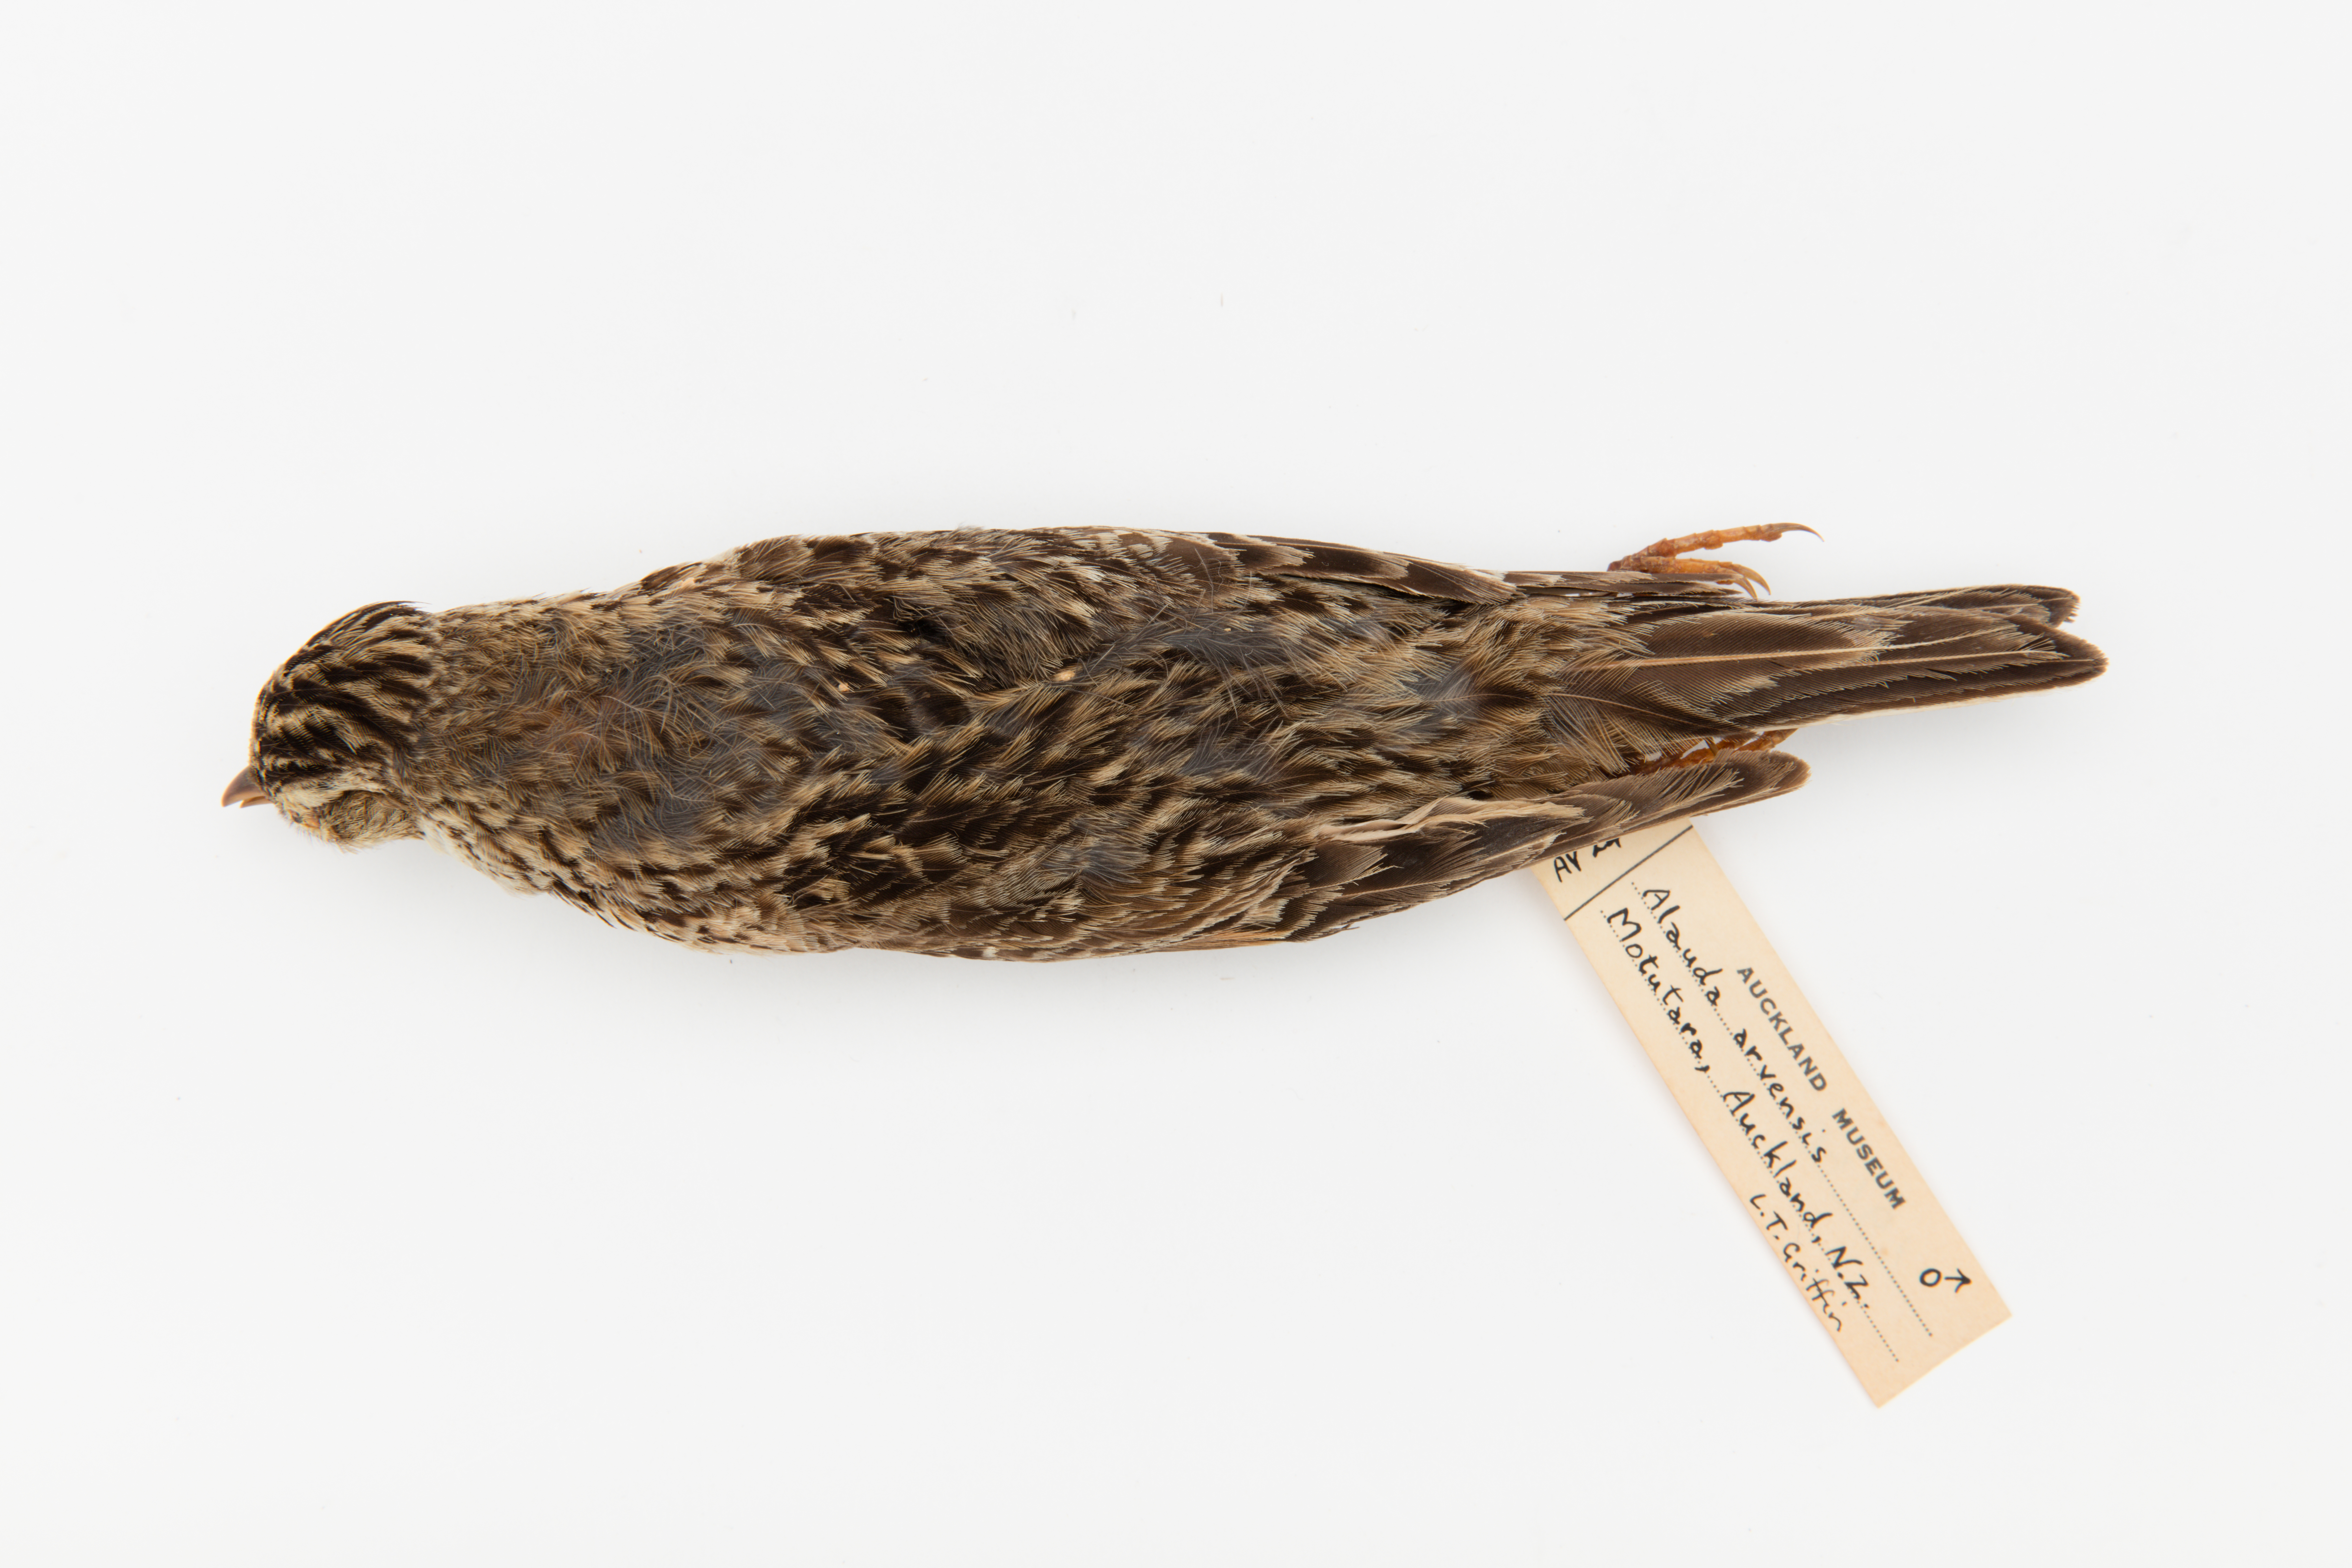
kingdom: Animalia
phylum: Chordata
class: Aves
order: Passeriformes
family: Alaudidae
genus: Alauda
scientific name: Alauda arvensis
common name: Eurasian skylark
